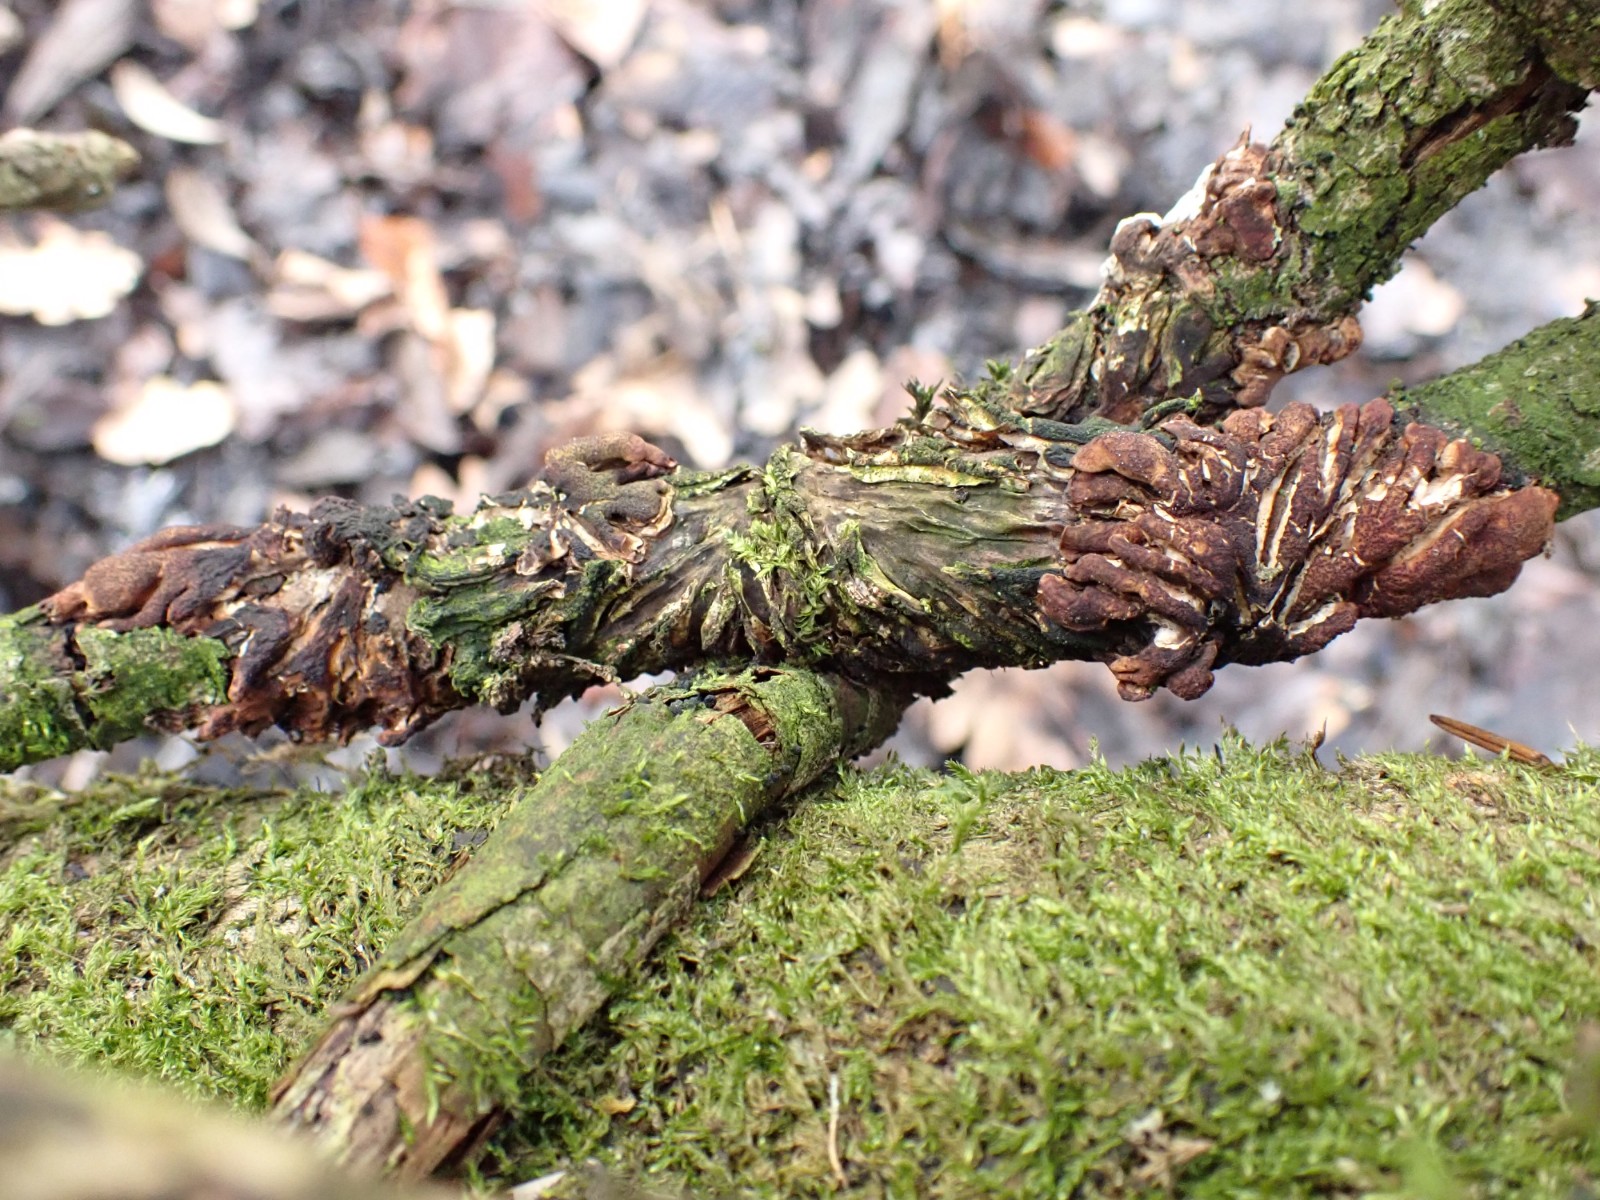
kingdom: Fungi
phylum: Ascomycota
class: Sordariomycetes
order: Hypocreales
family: Hypocreaceae
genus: Hypocreopsis
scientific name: Hypocreopsis lichenoides
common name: pilfinger
